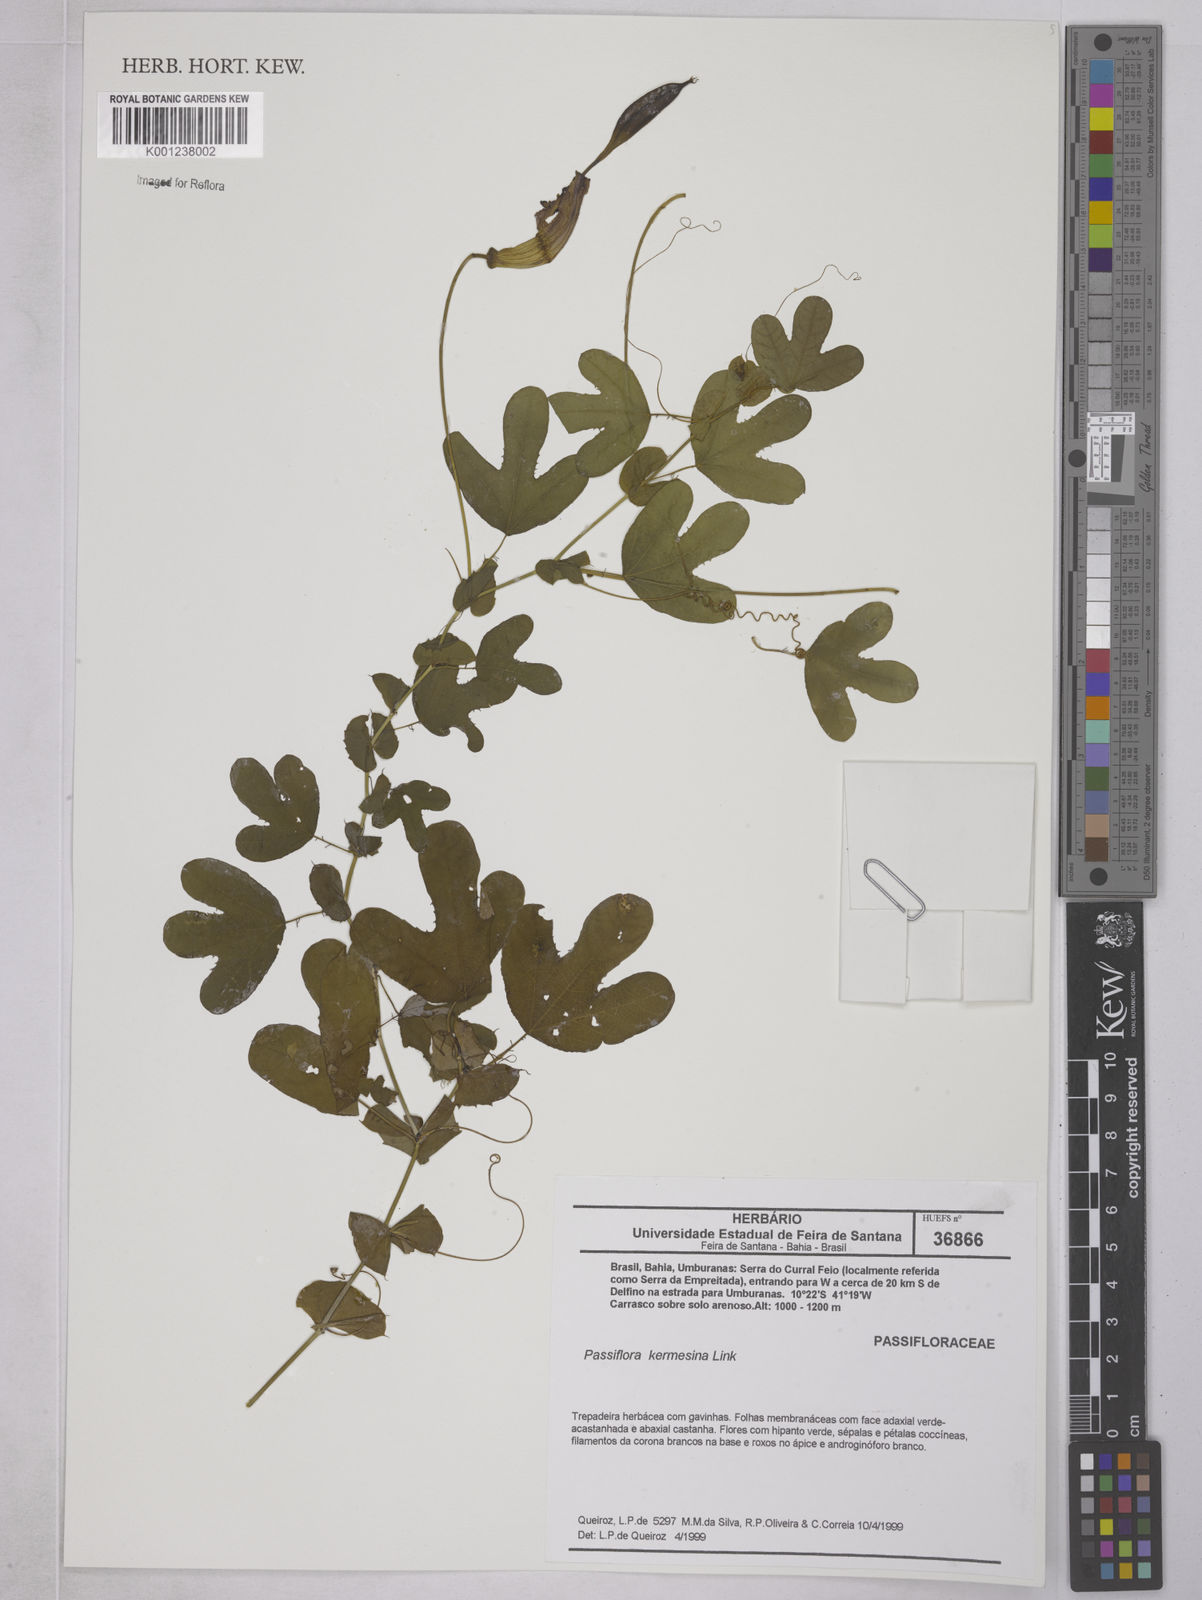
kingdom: Plantae
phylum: Tracheophyta
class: Magnoliopsida
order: Malpighiales
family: Passifloraceae
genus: Passiflora
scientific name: Passiflora kermesina
